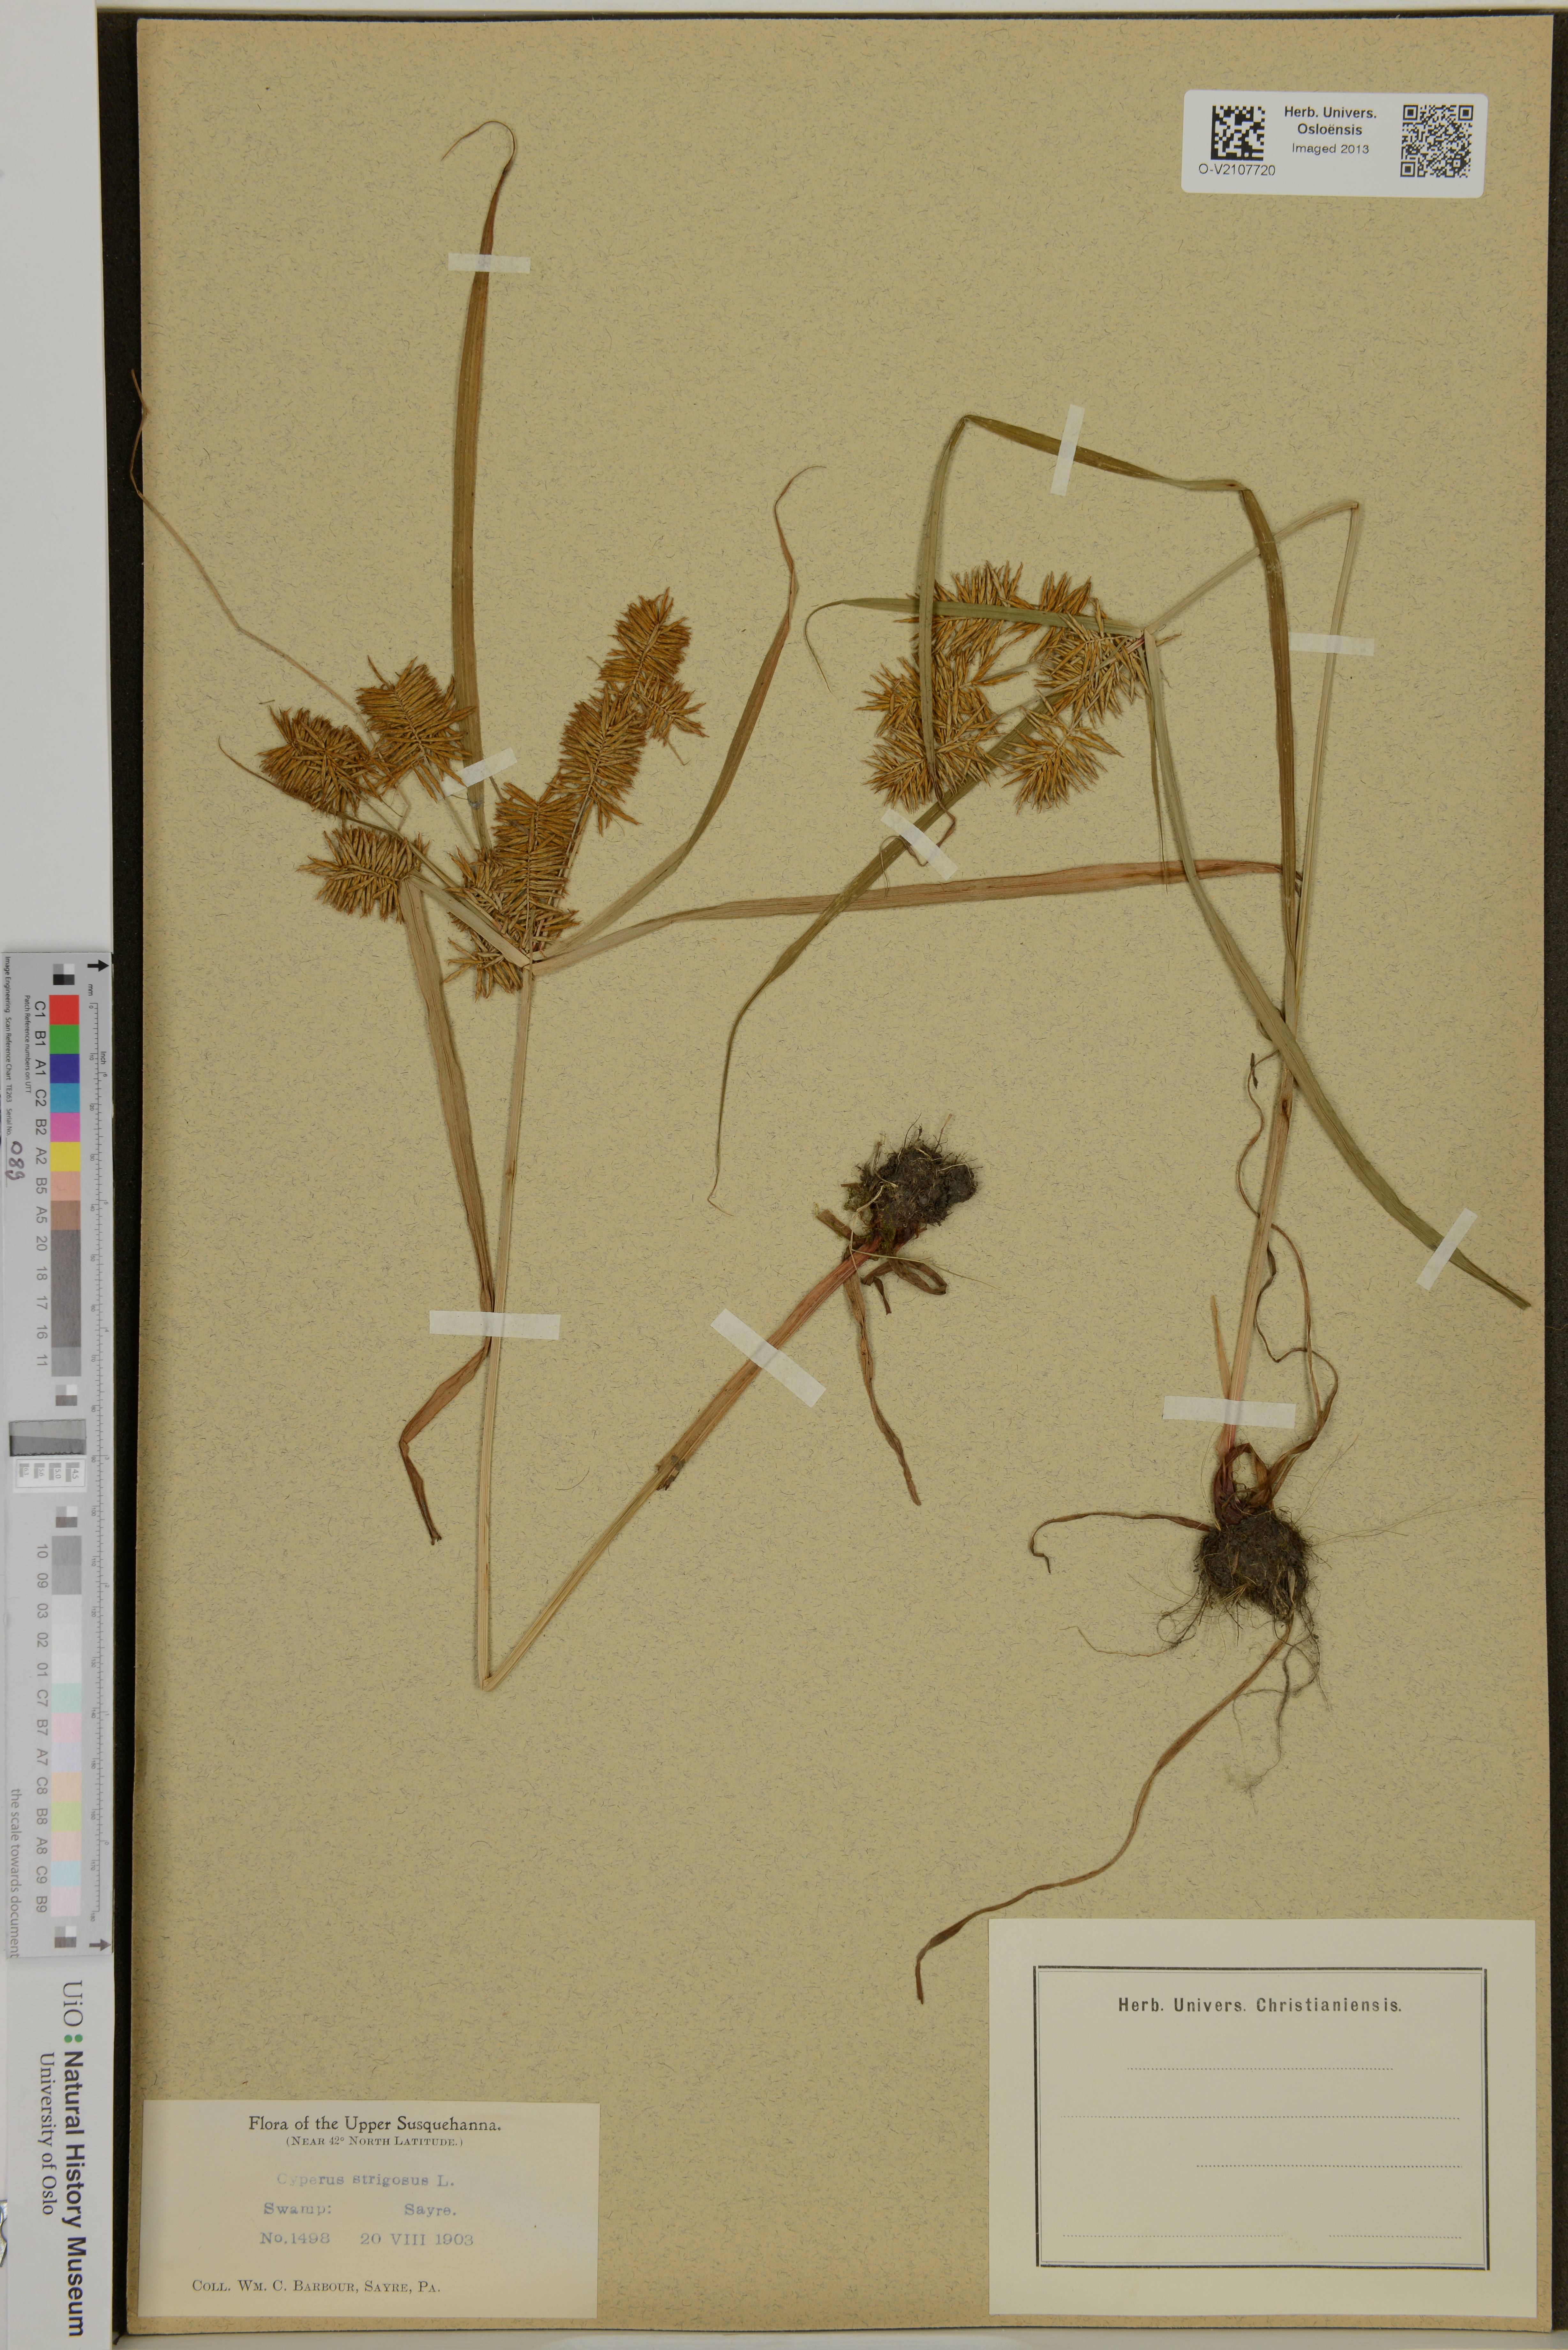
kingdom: Plantae
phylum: Tracheophyta
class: Liliopsida
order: Poales
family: Cyperaceae
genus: Cyperus
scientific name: Cyperus strigosus
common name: False nutsedge
